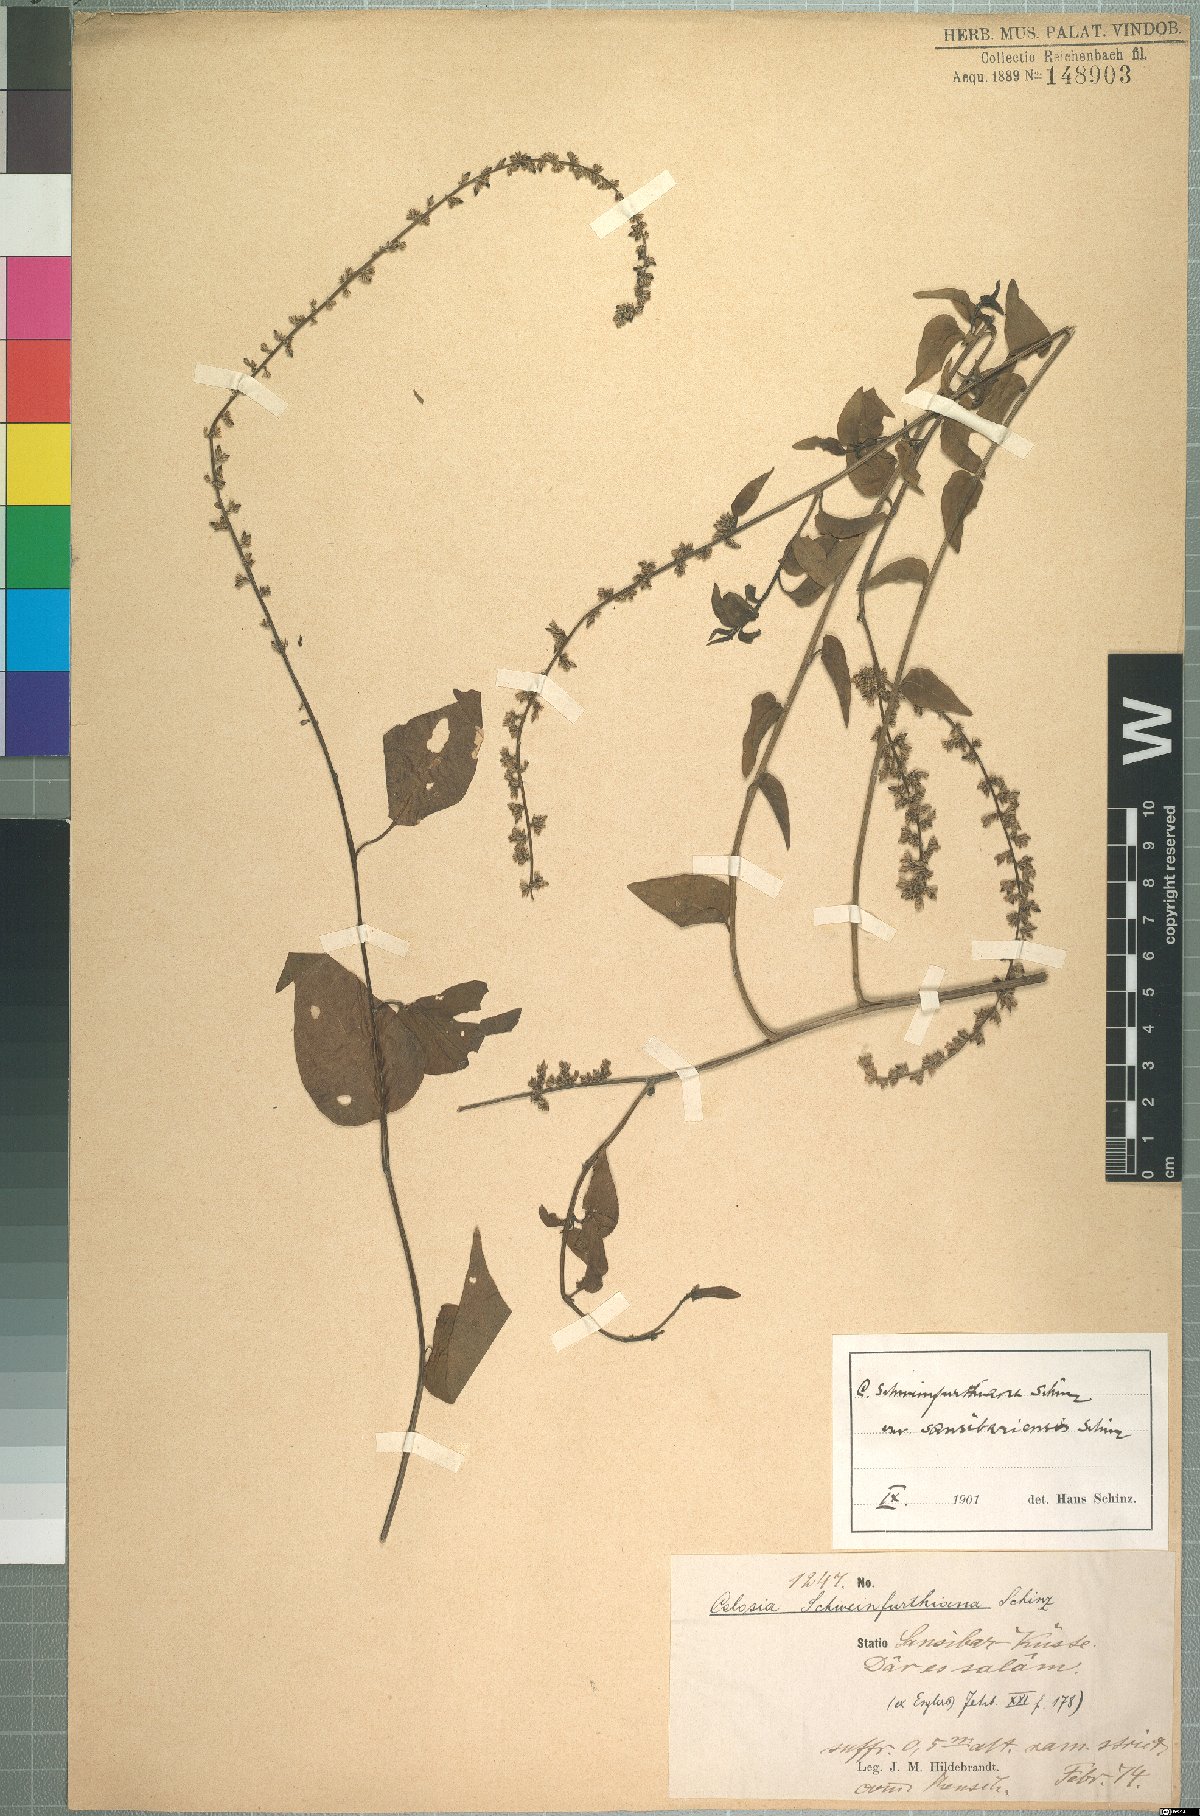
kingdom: Plantae
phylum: Tracheophyta
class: Magnoliopsida
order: Caryophyllales
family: Amaranthaceae
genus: Celosia
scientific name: Celosia schweinfurthiana
